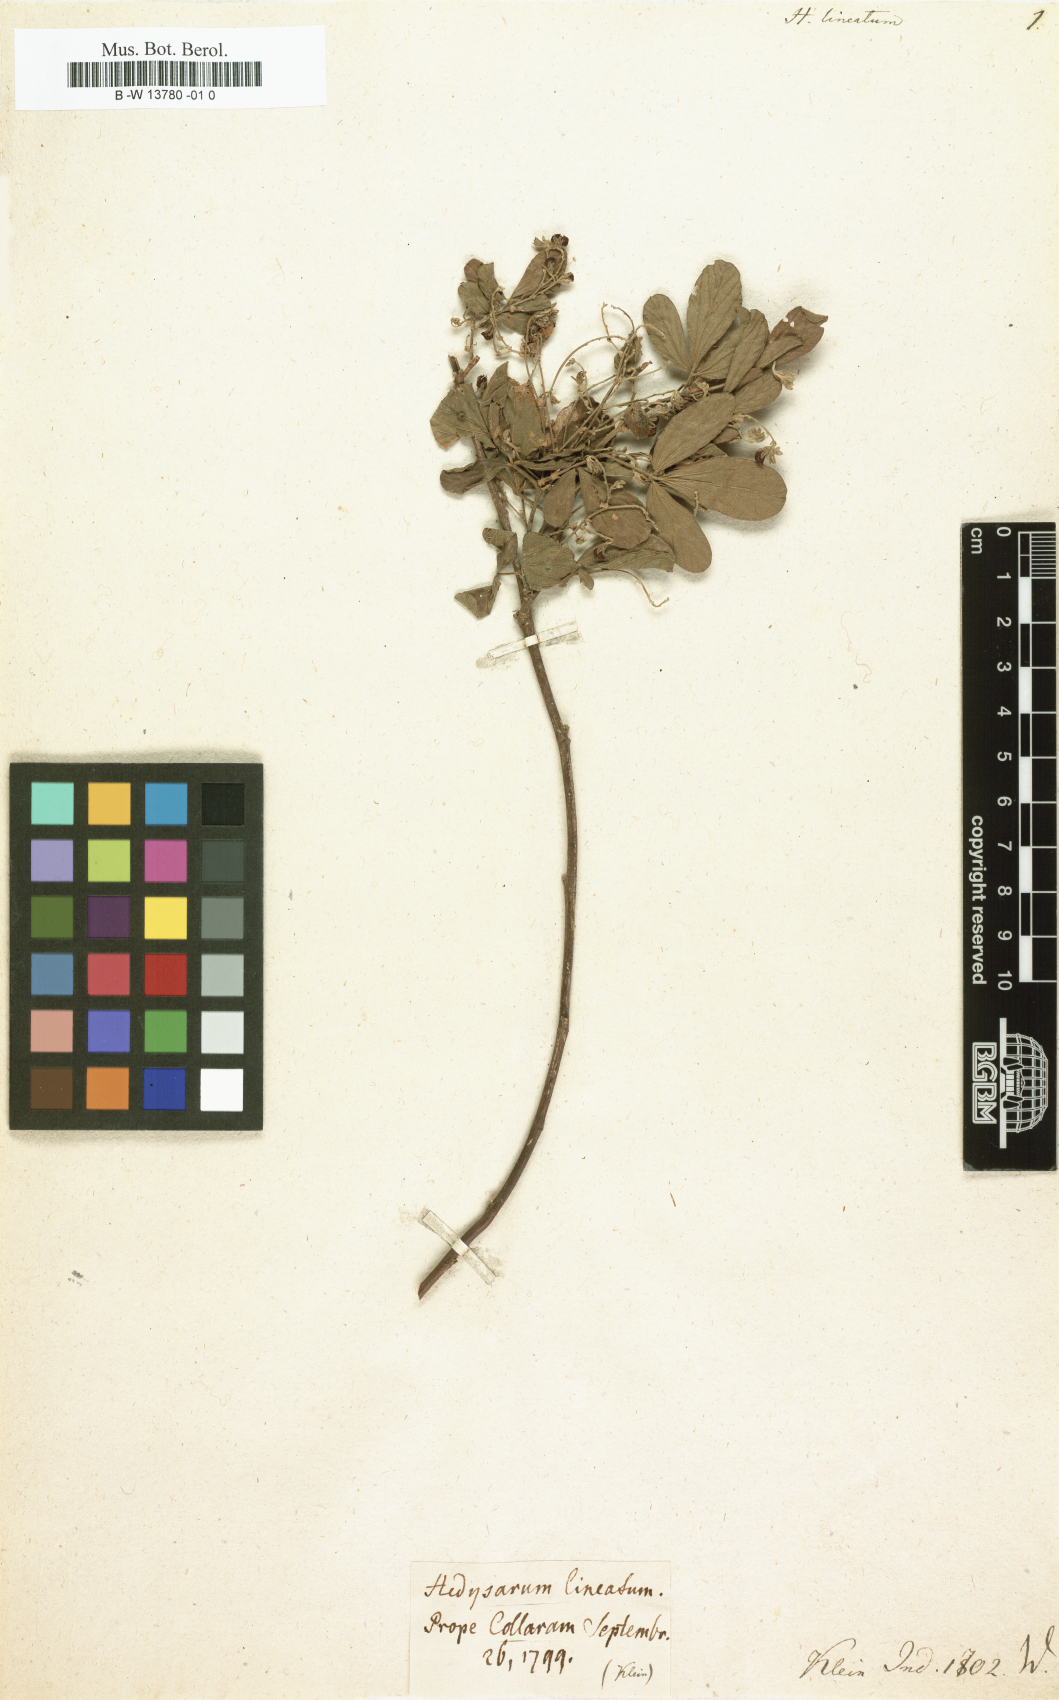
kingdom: Plantae
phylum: Tracheophyta
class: Magnoliopsida
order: Fabales
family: Fabaceae
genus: Flemingia
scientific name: Flemingia lineata
